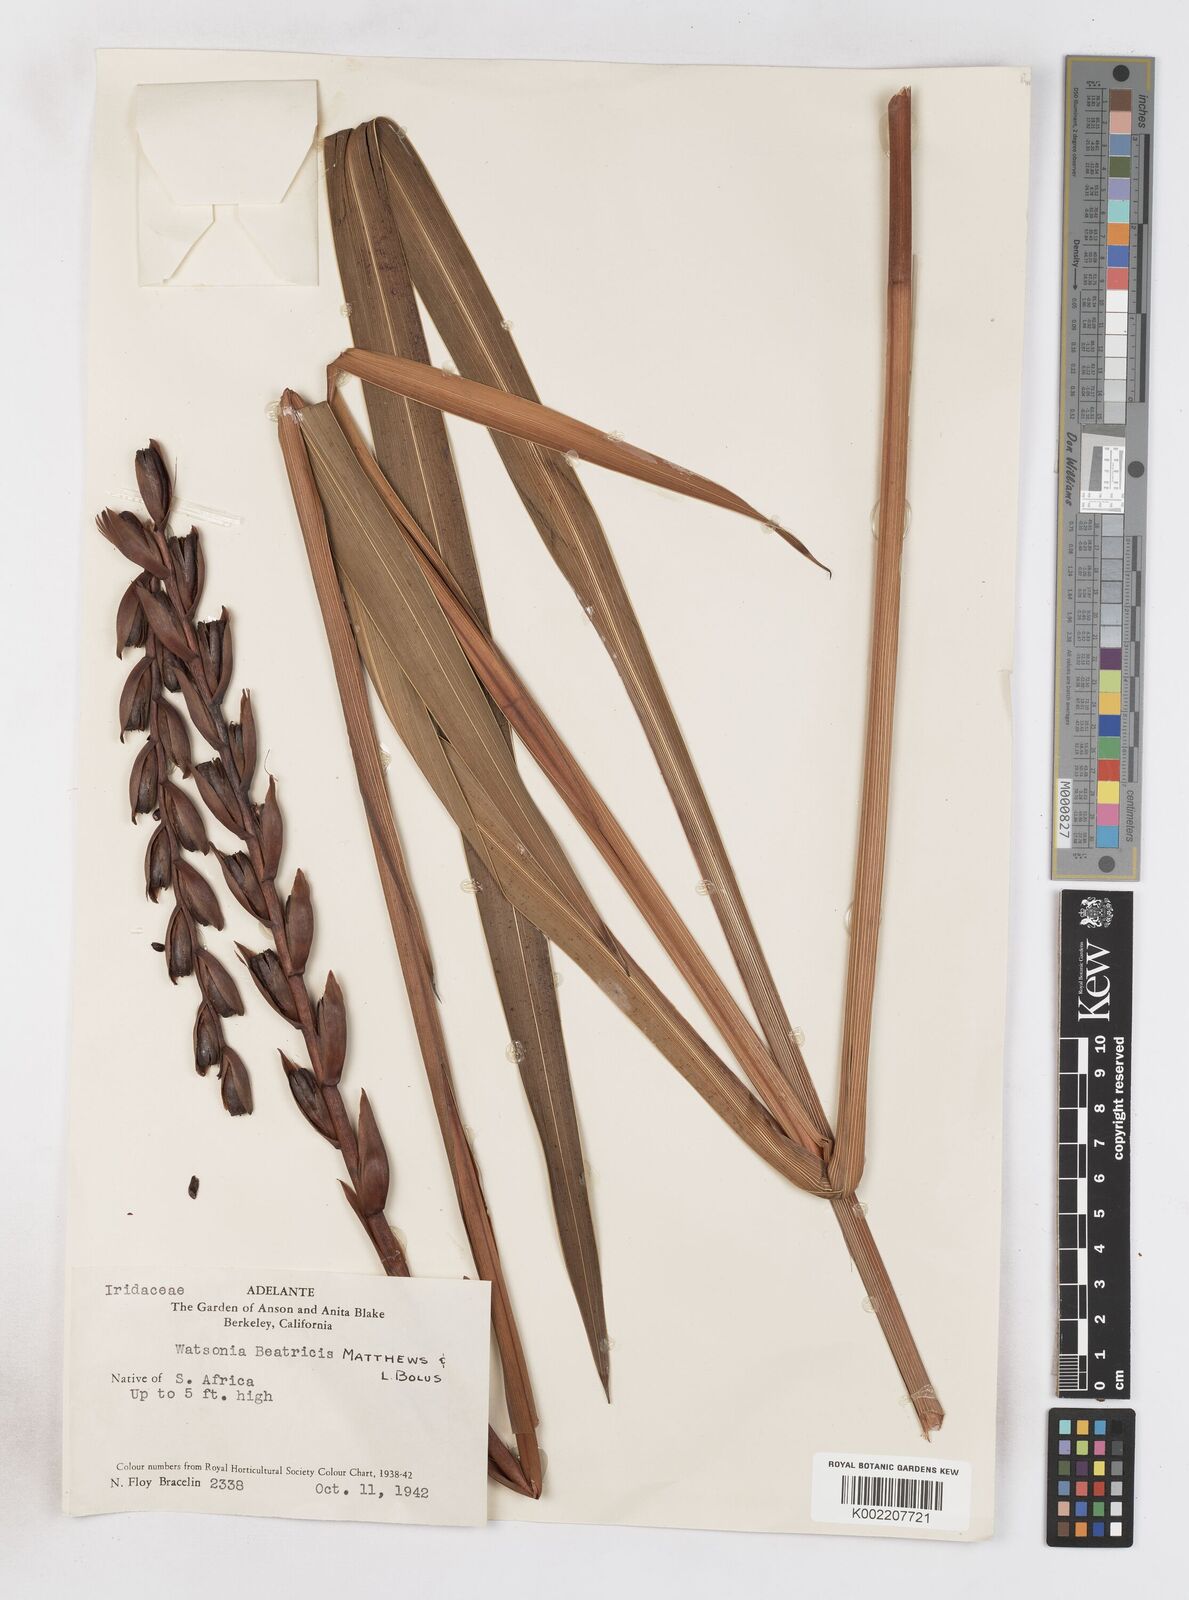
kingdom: Plantae
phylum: Tracheophyta
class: Liliopsida
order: Asparagales
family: Iridaceae
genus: Watsonia
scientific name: Watsonia pillansii
